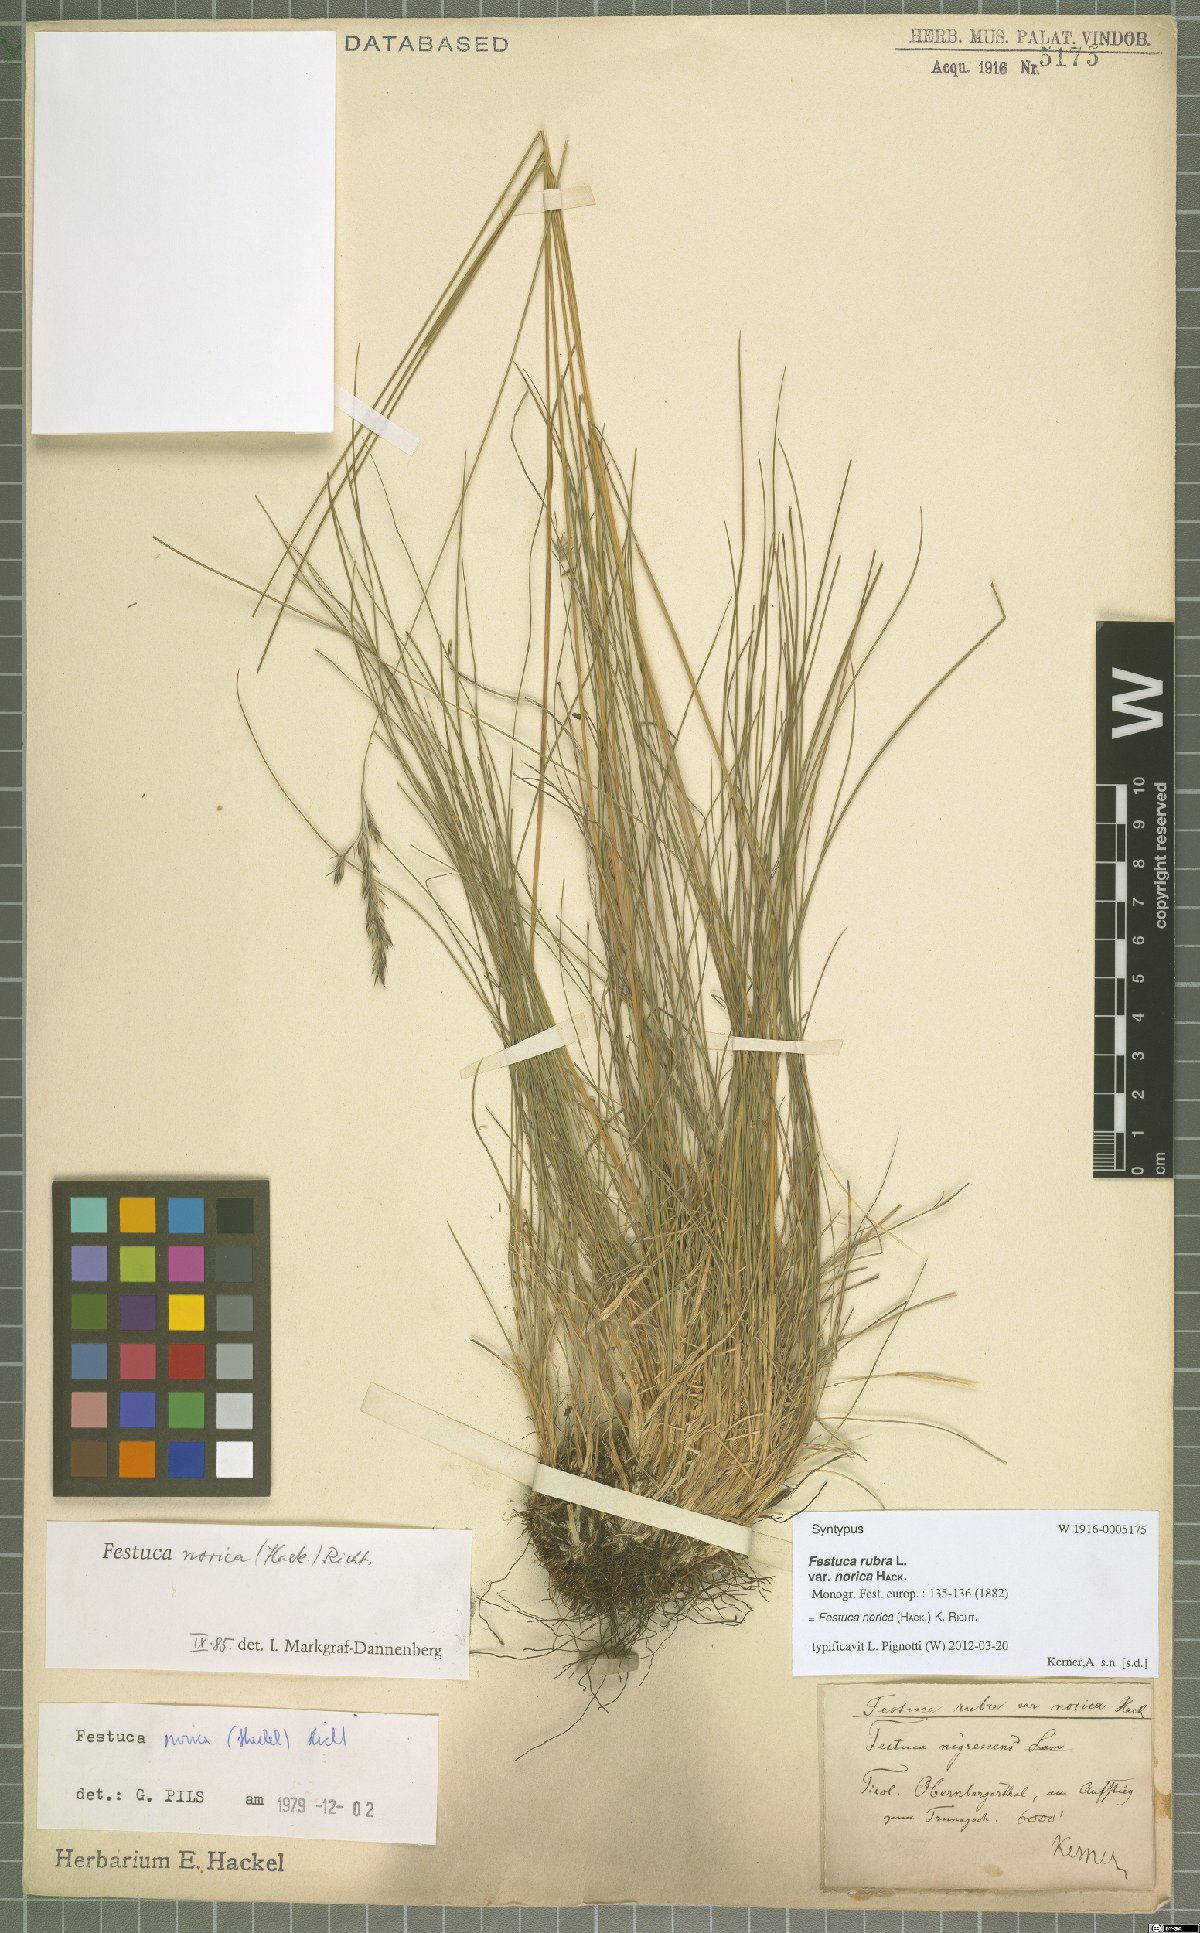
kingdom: Plantae
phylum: Tracheophyta
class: Liliopsida
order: Poales
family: Poaceae
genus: Festuca
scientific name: Festuca norica
